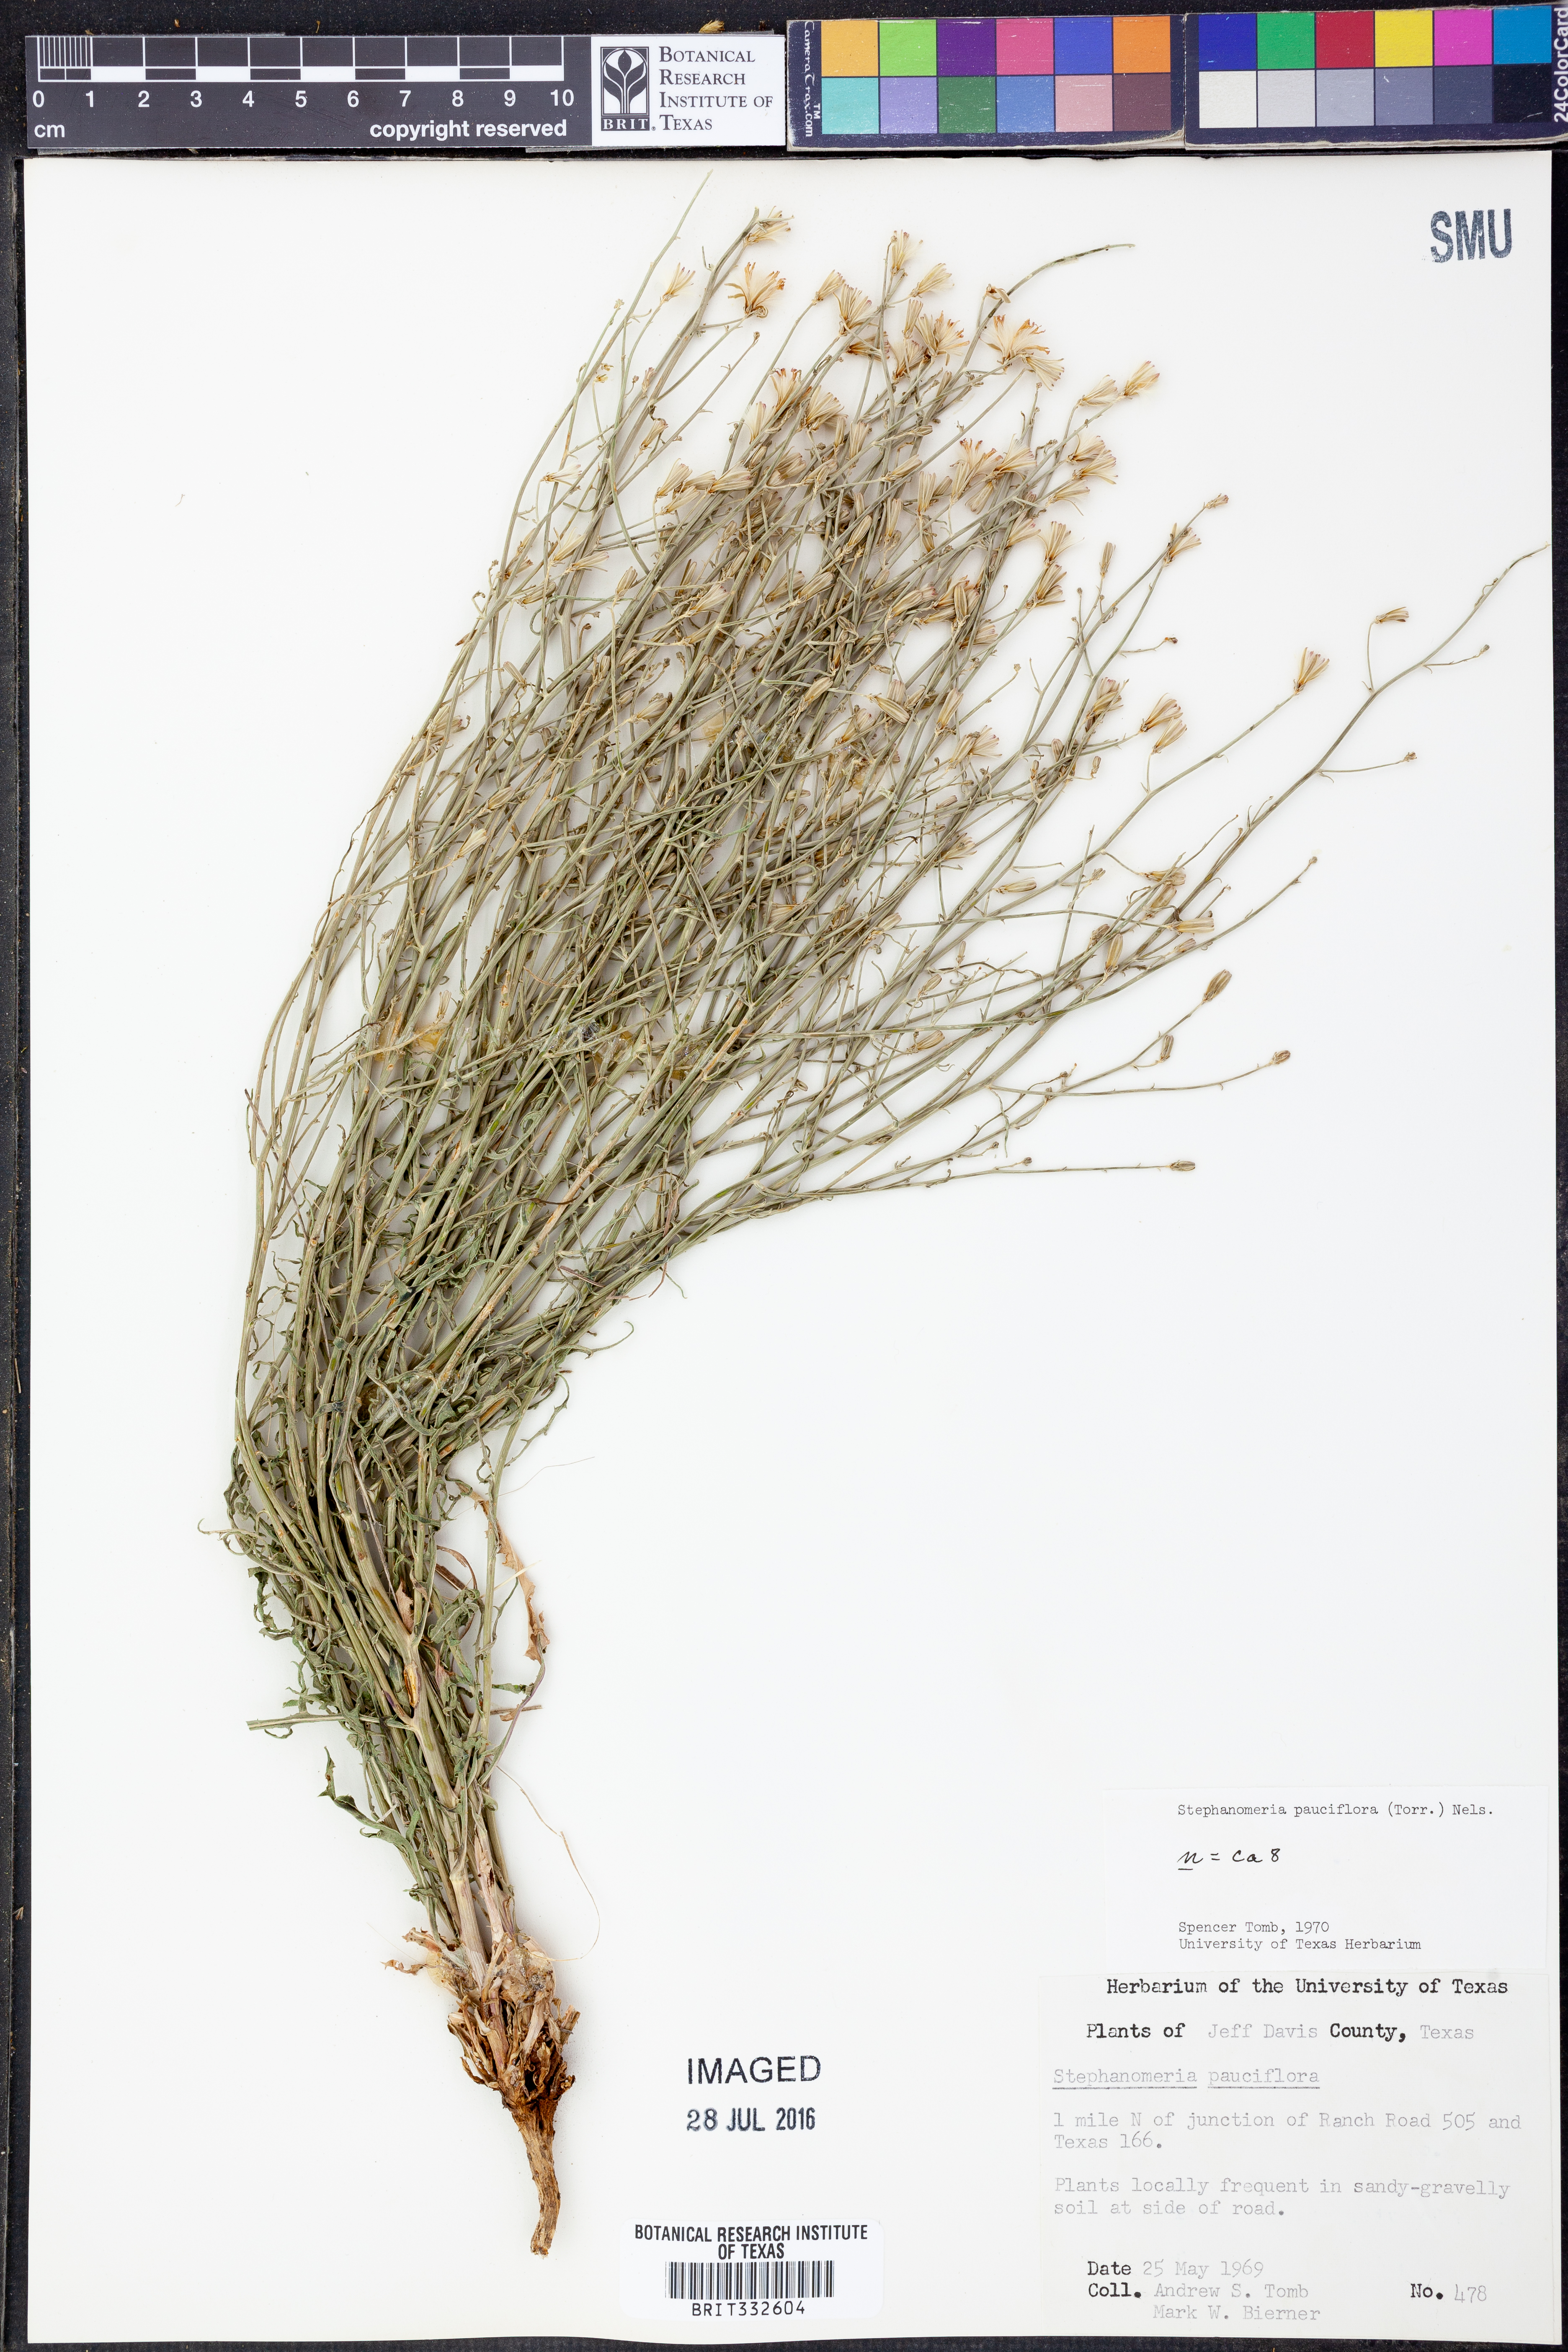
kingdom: Plantae
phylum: Tracheophyta
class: Magnoliopsida
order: Asterales
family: Asteraceae
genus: Stephanomeria
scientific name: Stephanomeria pauciflora
